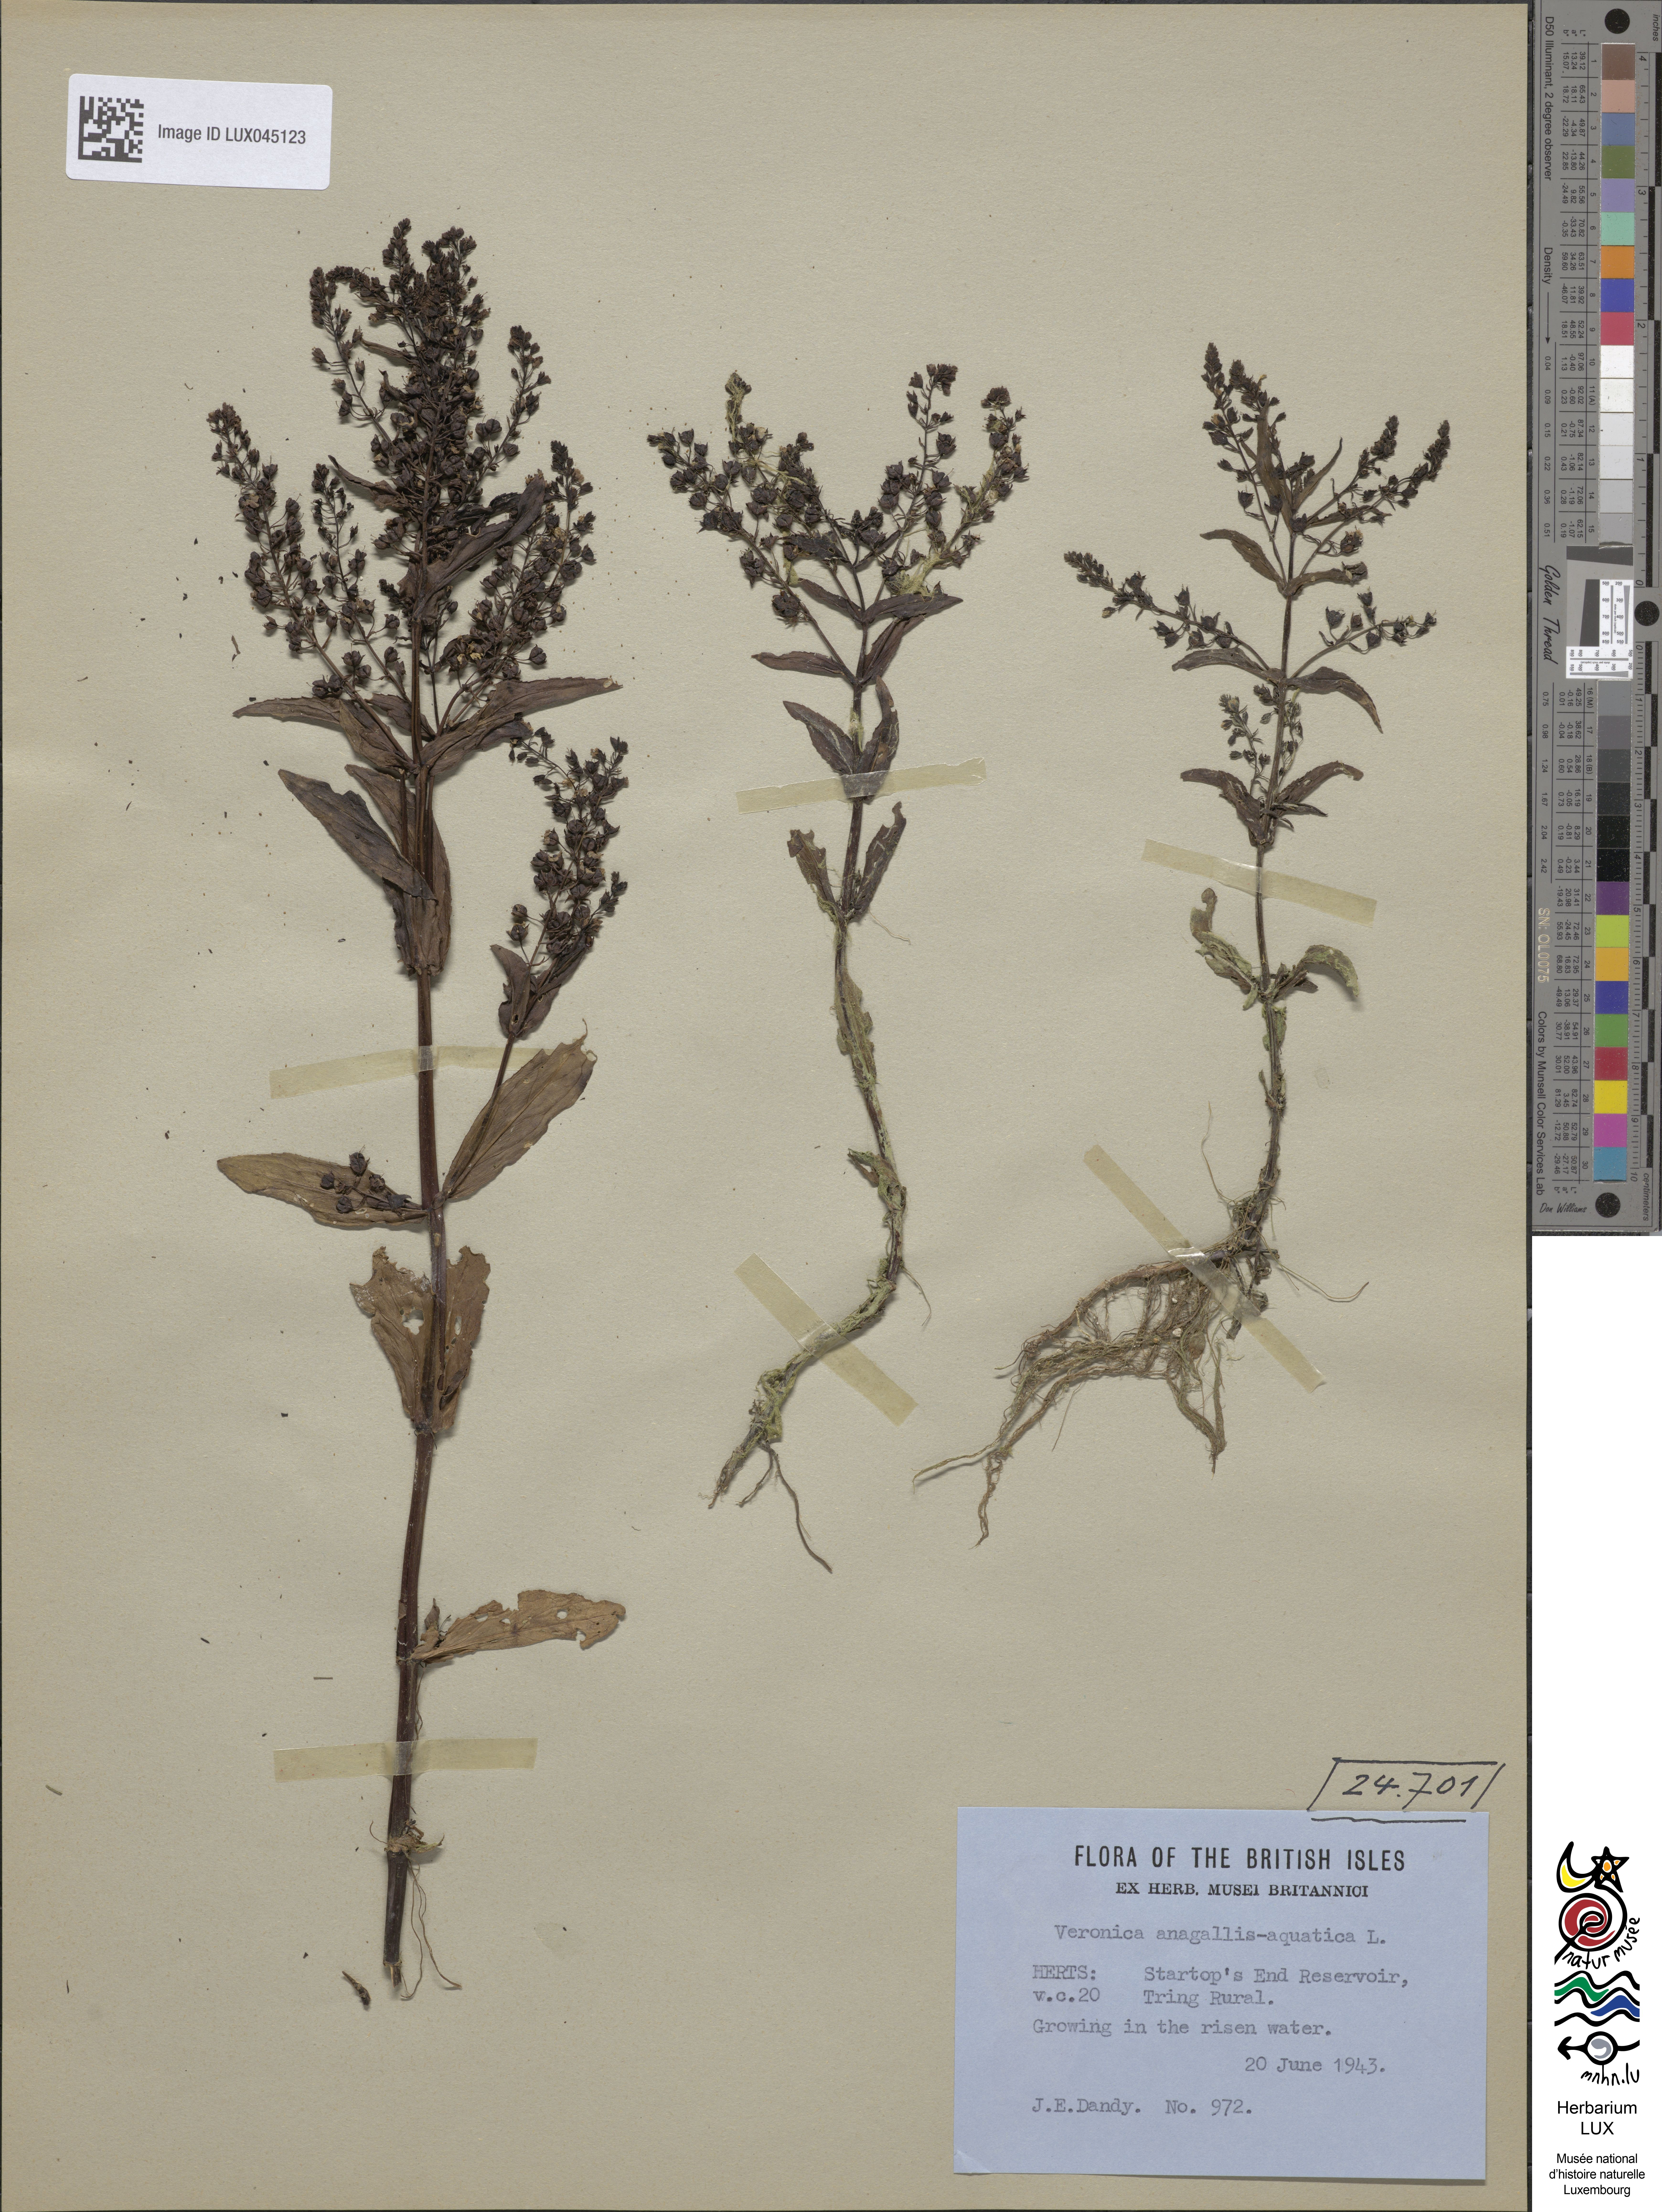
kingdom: Plantae
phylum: Tracheophyta
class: Magnoliopsida
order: Lamiales
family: Plantaginaceae
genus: Veronica
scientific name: Veronica anagallis-aquatica
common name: Water speedwell
